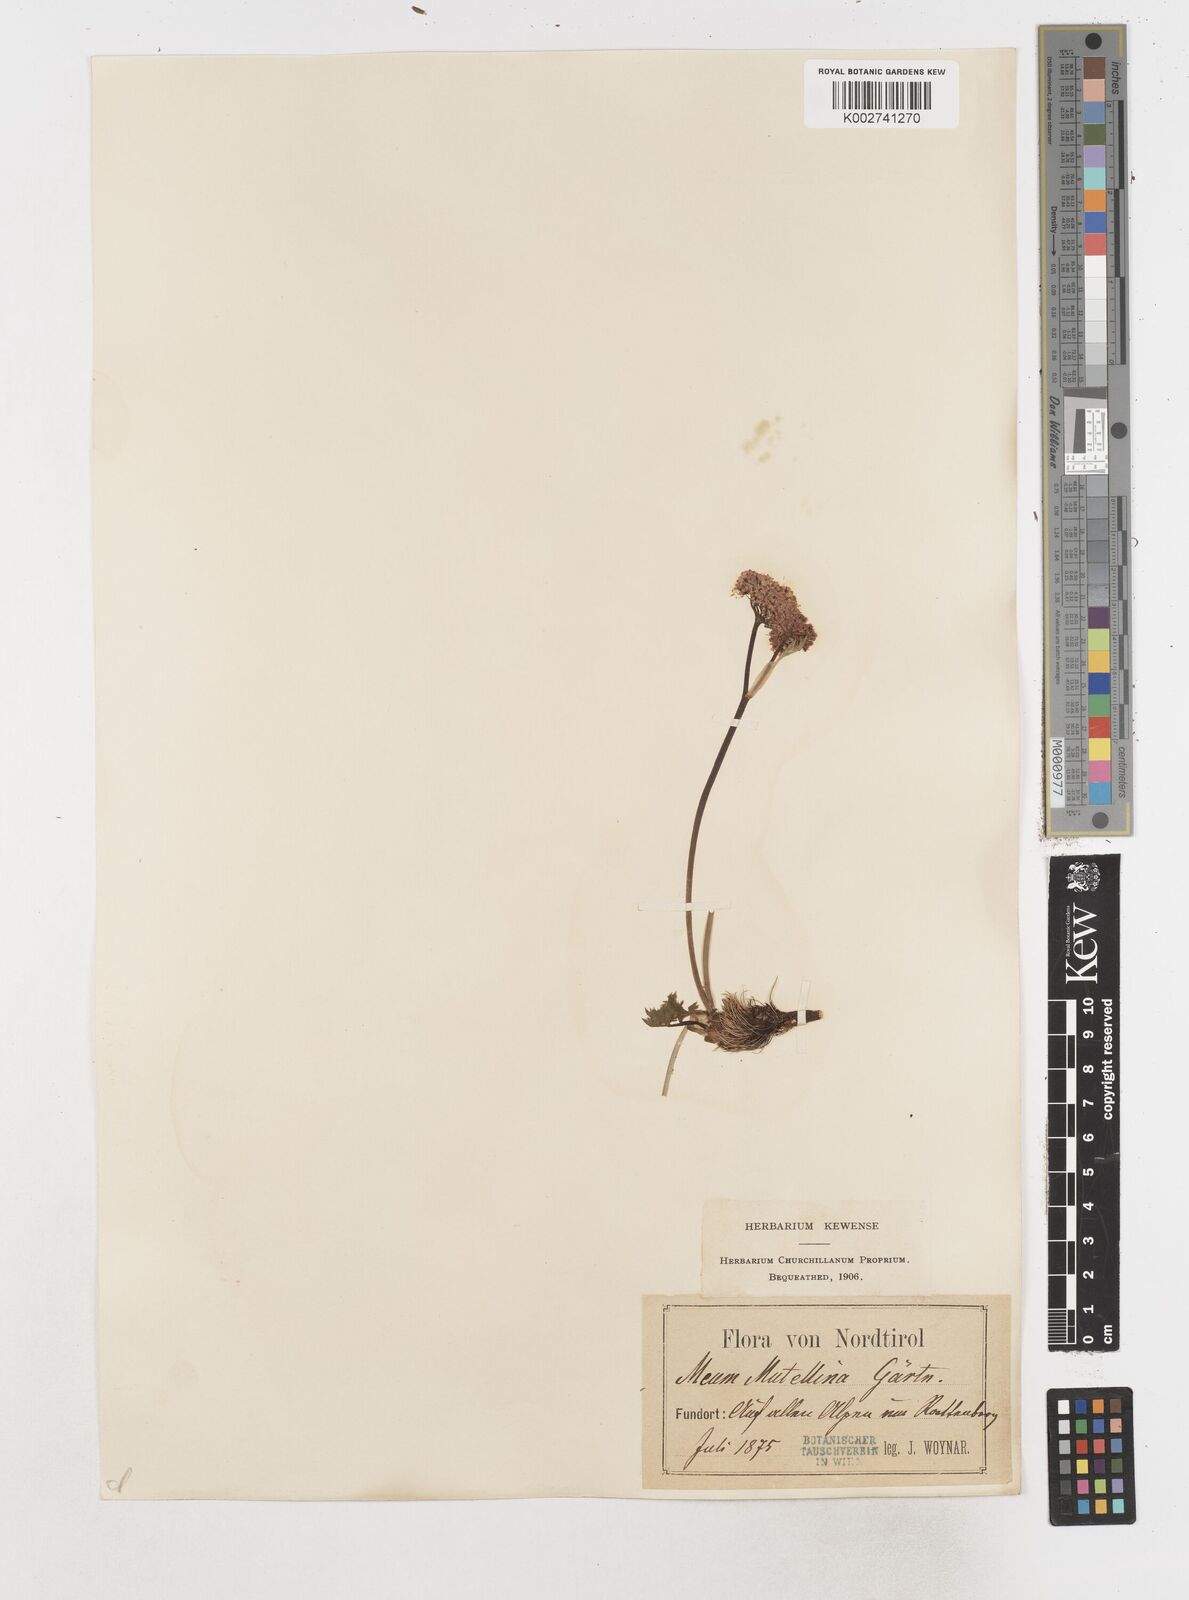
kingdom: Plantae
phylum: Tracheophyta
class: Magnoliopsida
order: Apiales
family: Apiaceae
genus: Mutellina
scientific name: Mutellina adonidifolia
